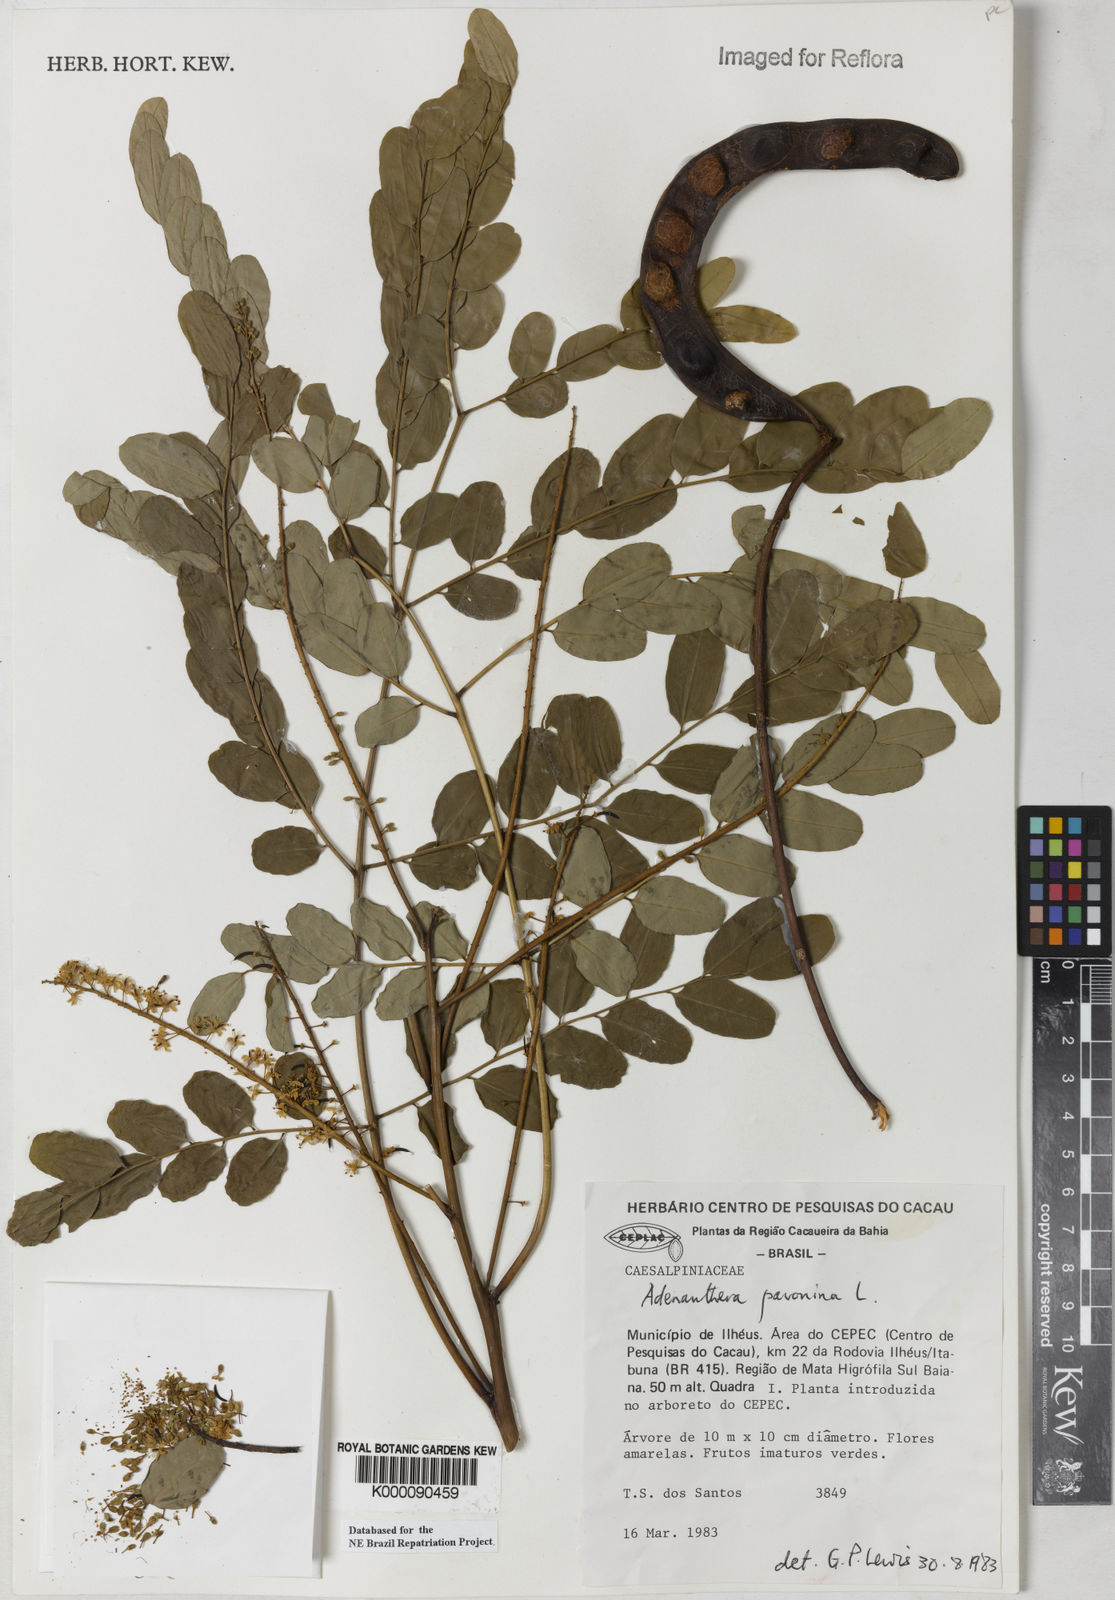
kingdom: Plantae
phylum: Tracheophyta
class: Magnoliopsida
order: Fabales
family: Fabaceae
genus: Adenanthera
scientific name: Adenanthera pavonina
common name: Red beadtree
